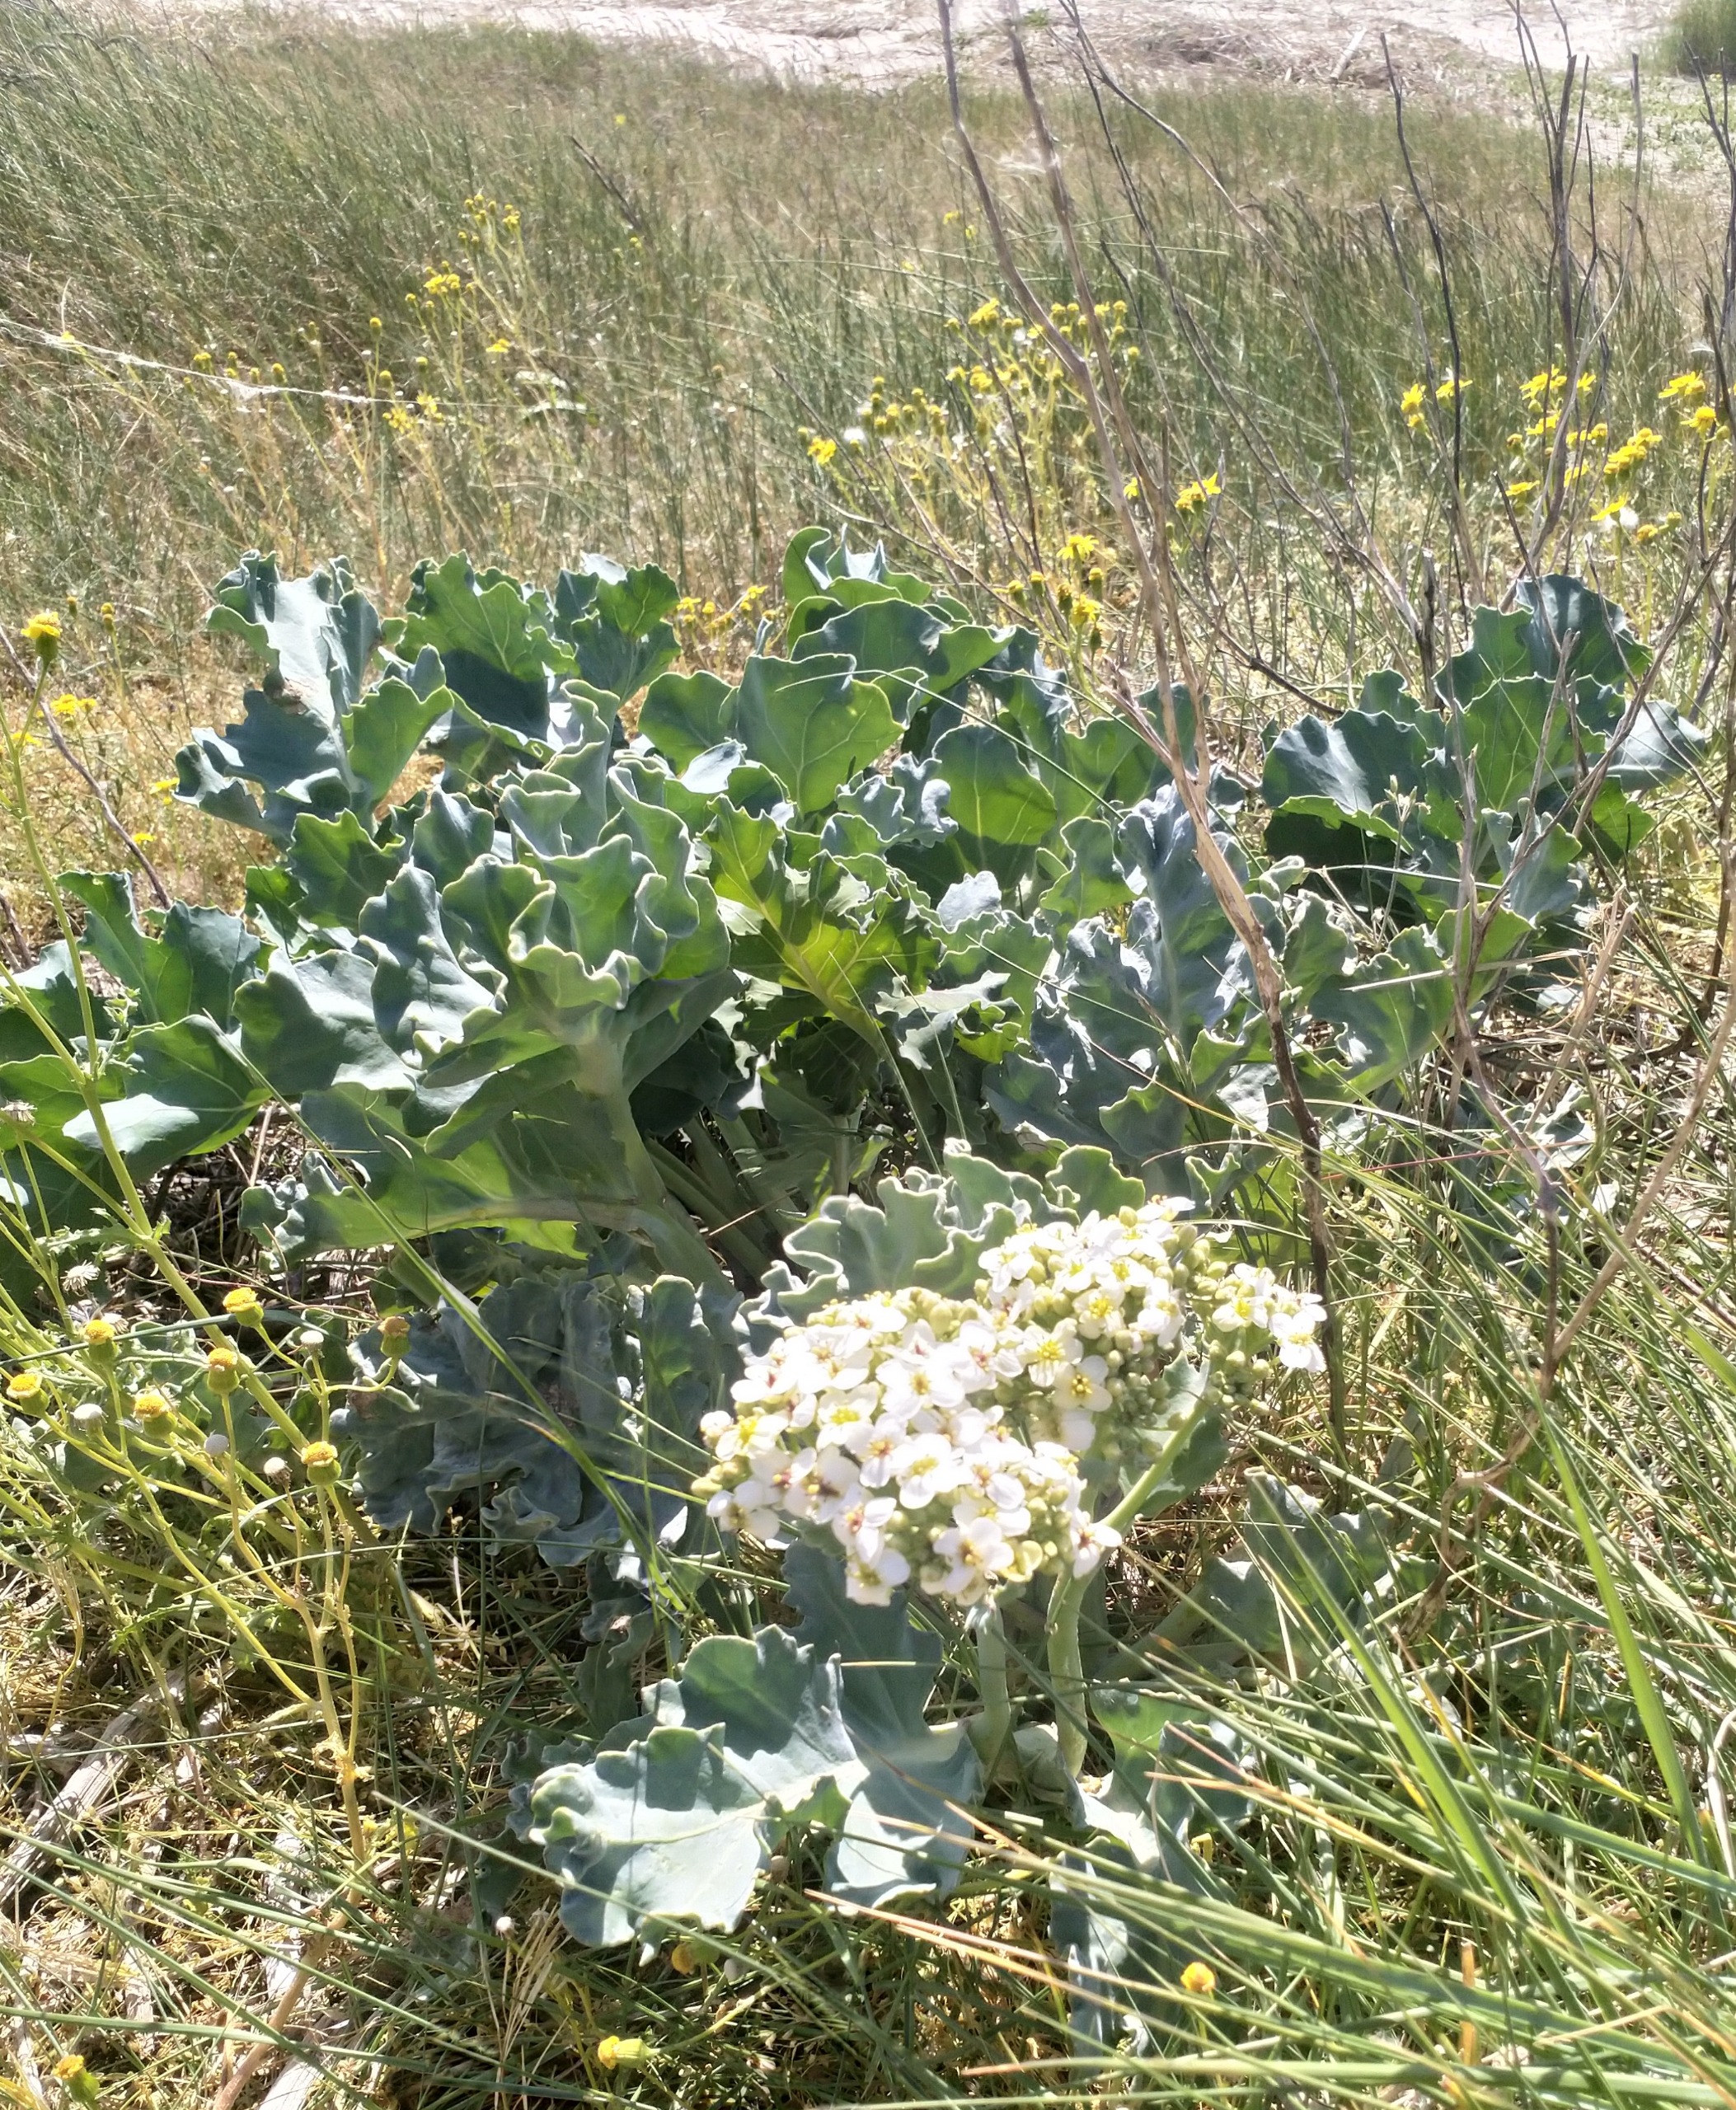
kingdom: Plantae
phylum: Tracheophyta
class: Magnoliopsida
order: Brassicales
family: Brassicaceae
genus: Crambe
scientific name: Crambe maritima
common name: Strandkål
